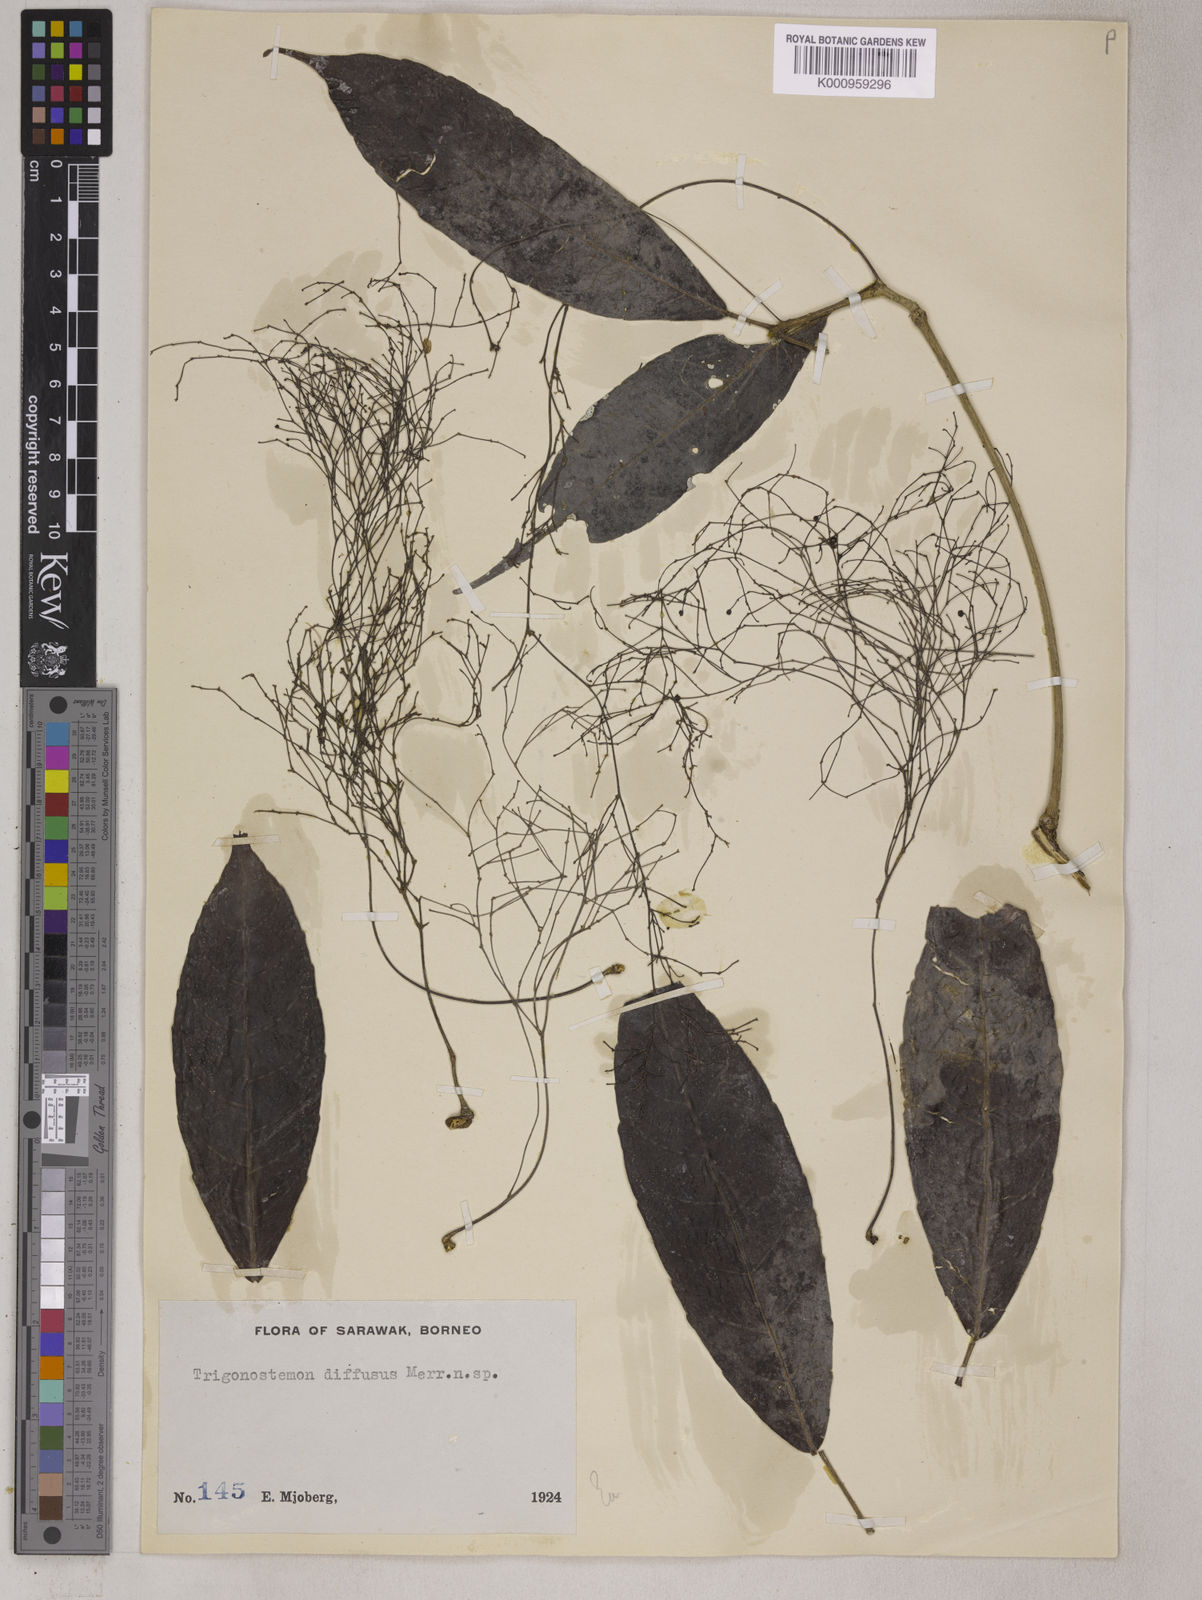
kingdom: Plantae
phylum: Tracheophyta
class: Magnoliopsida
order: Malpighiales
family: Euphorbiaceae
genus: Trigonostemon
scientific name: Trigonostemon diffusus
